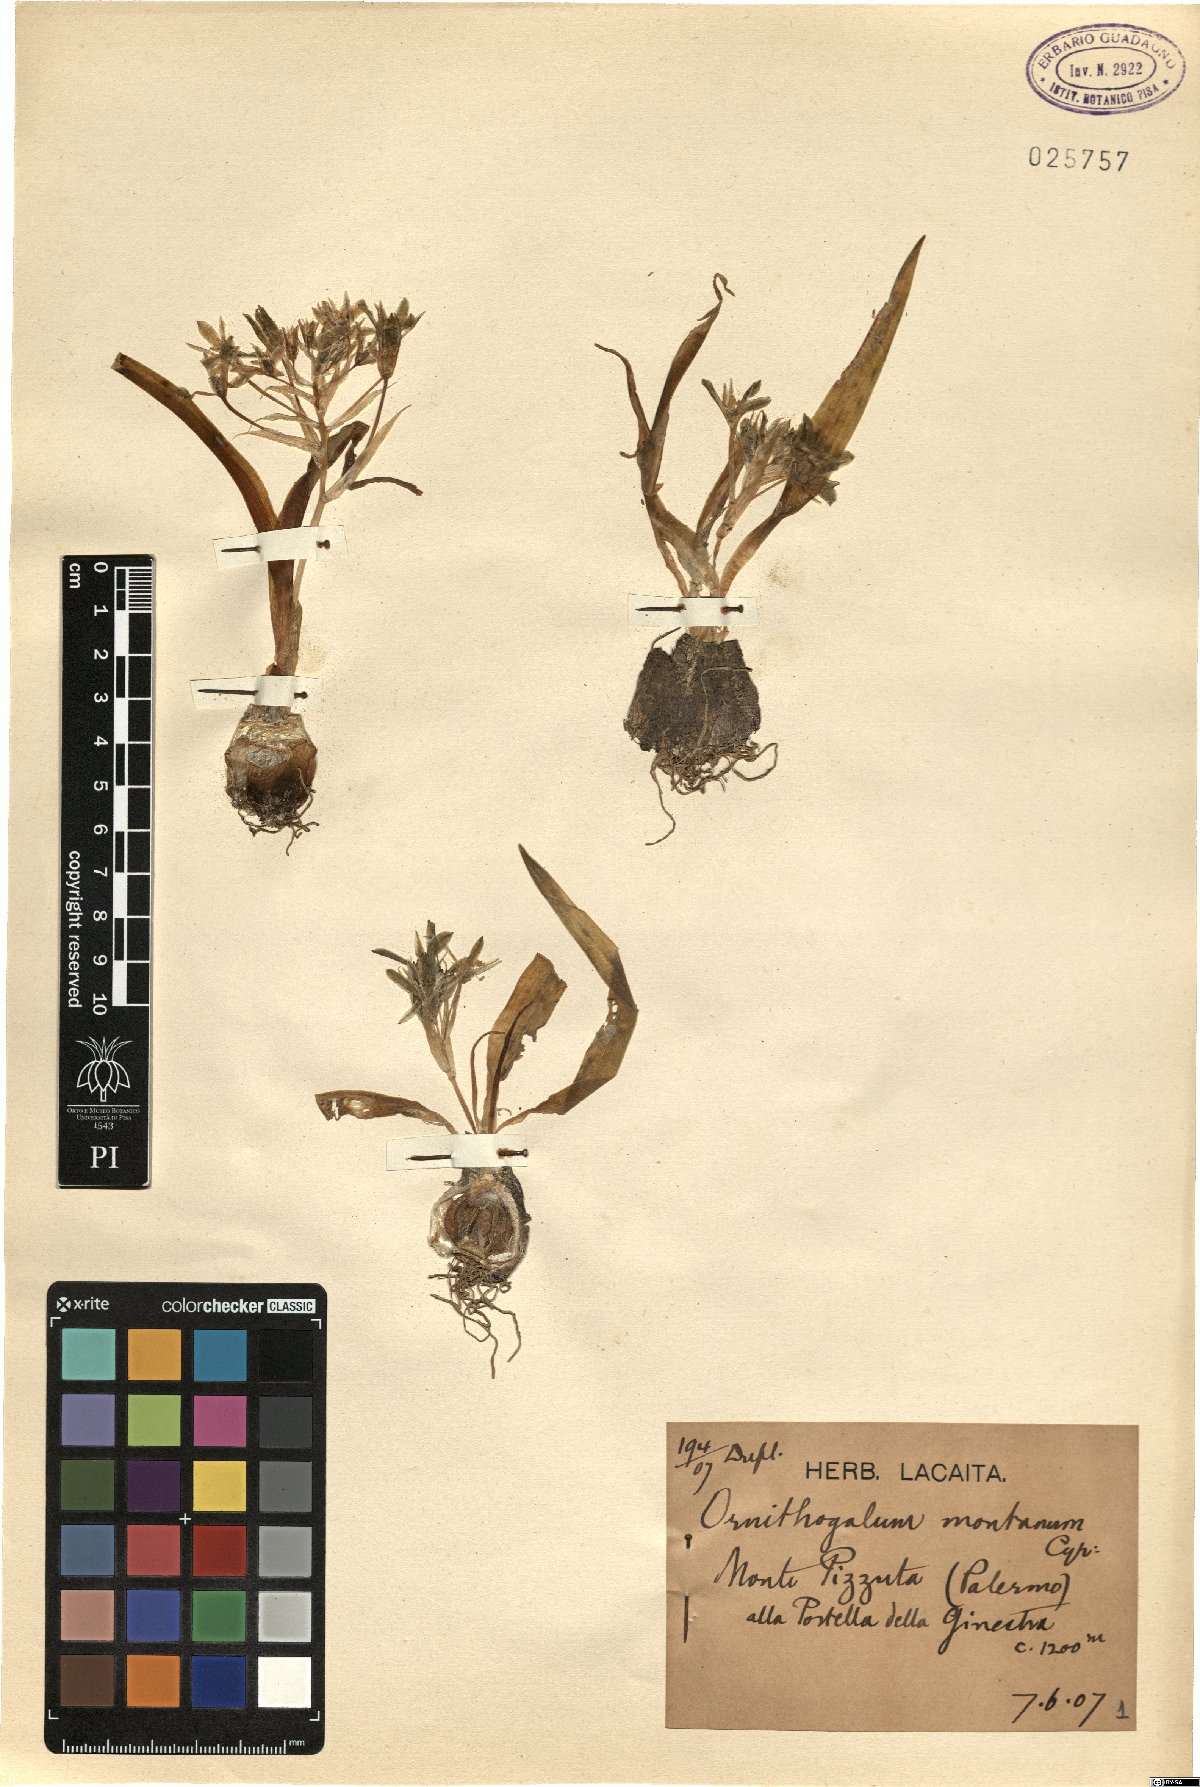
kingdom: Plantae
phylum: Tracheophyta
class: Liliopsida
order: Asparagales
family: Asparagaceae
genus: Ornithogalum
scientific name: Ornithogalum montanum
